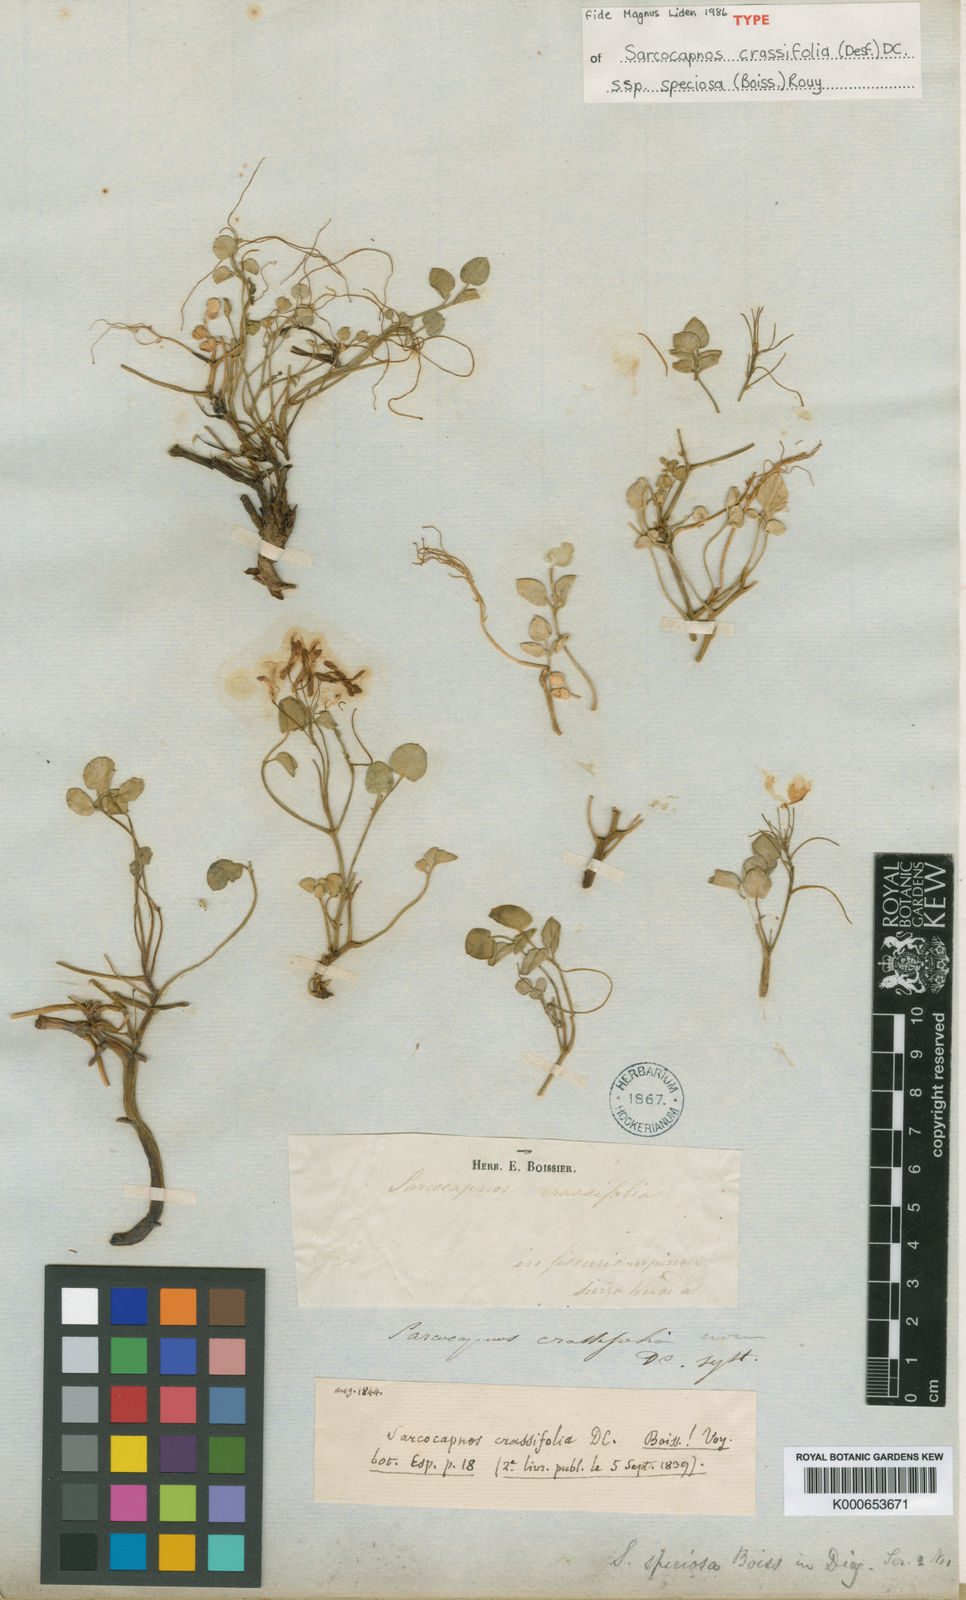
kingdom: Plantae
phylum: Tracheophyta
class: Magnoliopsida
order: Ranunculales
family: Papaveraceae
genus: Sarcocapnos
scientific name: Sarcocapnos crassifolia
